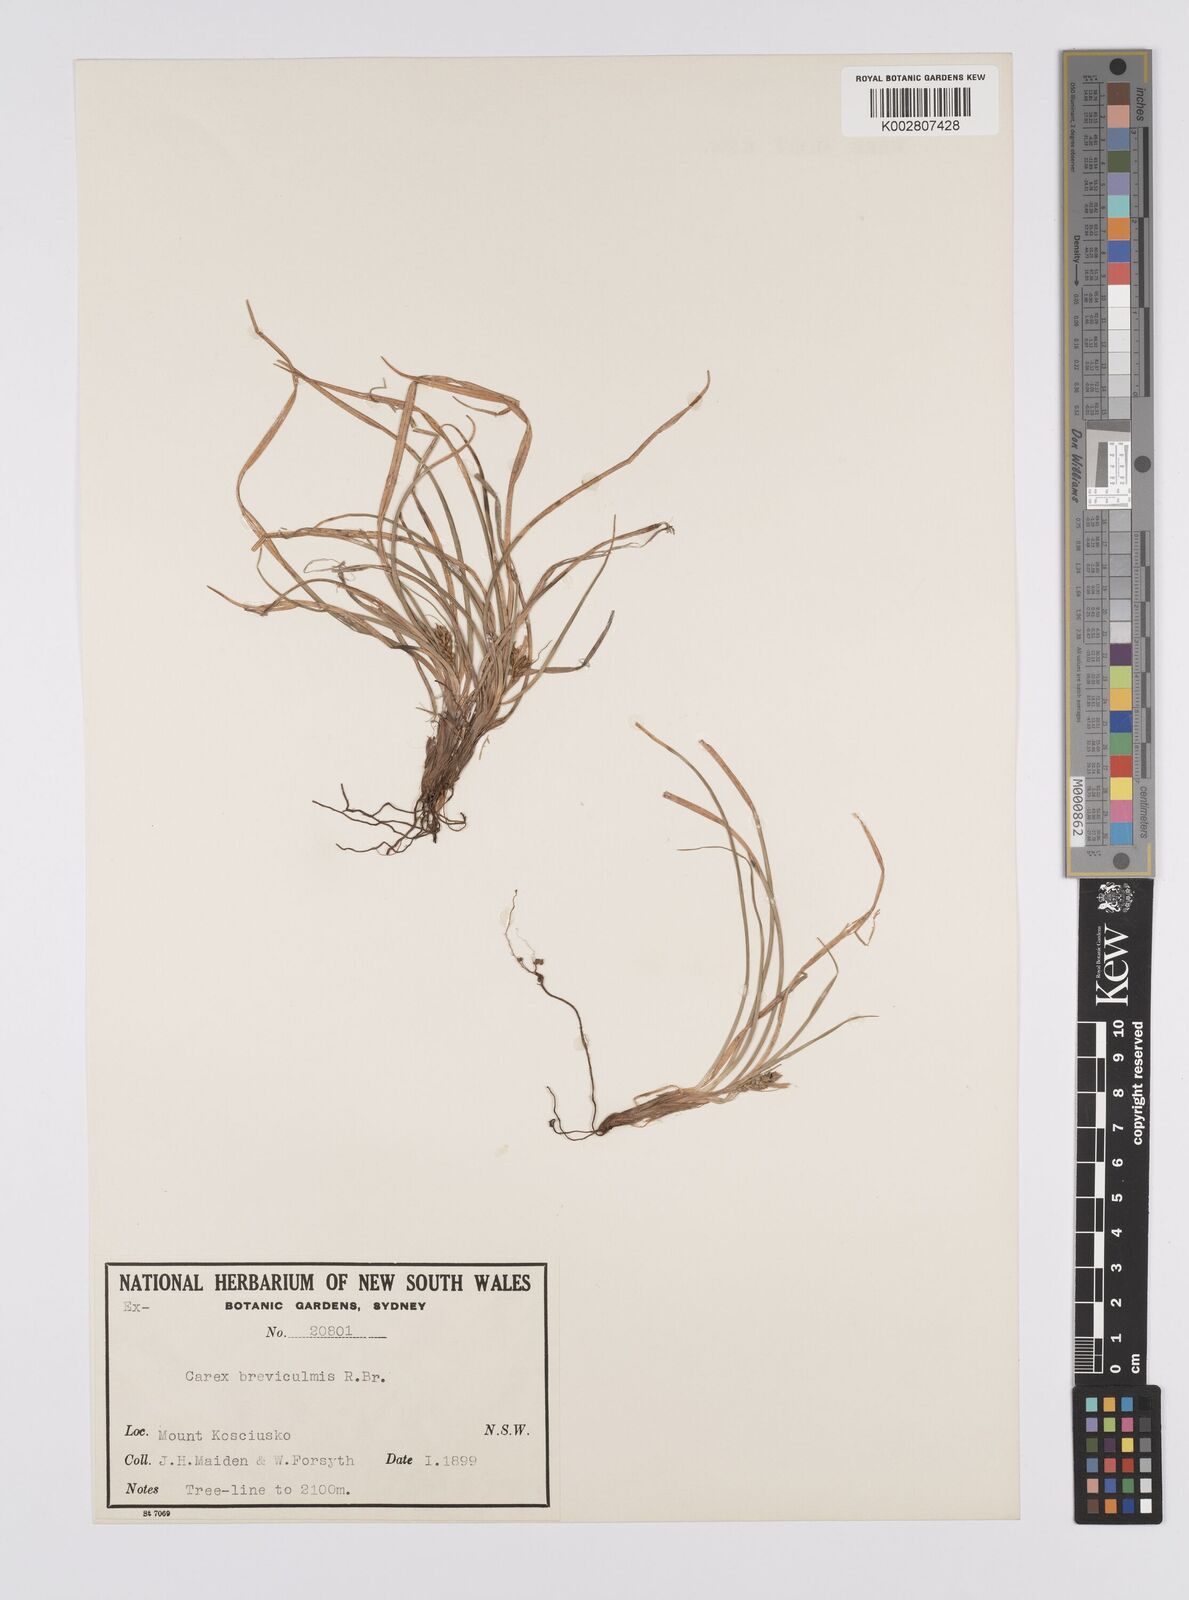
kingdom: Plantae
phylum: Tracheophyta
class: Liliopsida
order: Poales
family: Cyperaceae
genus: Carex
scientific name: Carex breviculmis
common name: Asian shortstem sedge
